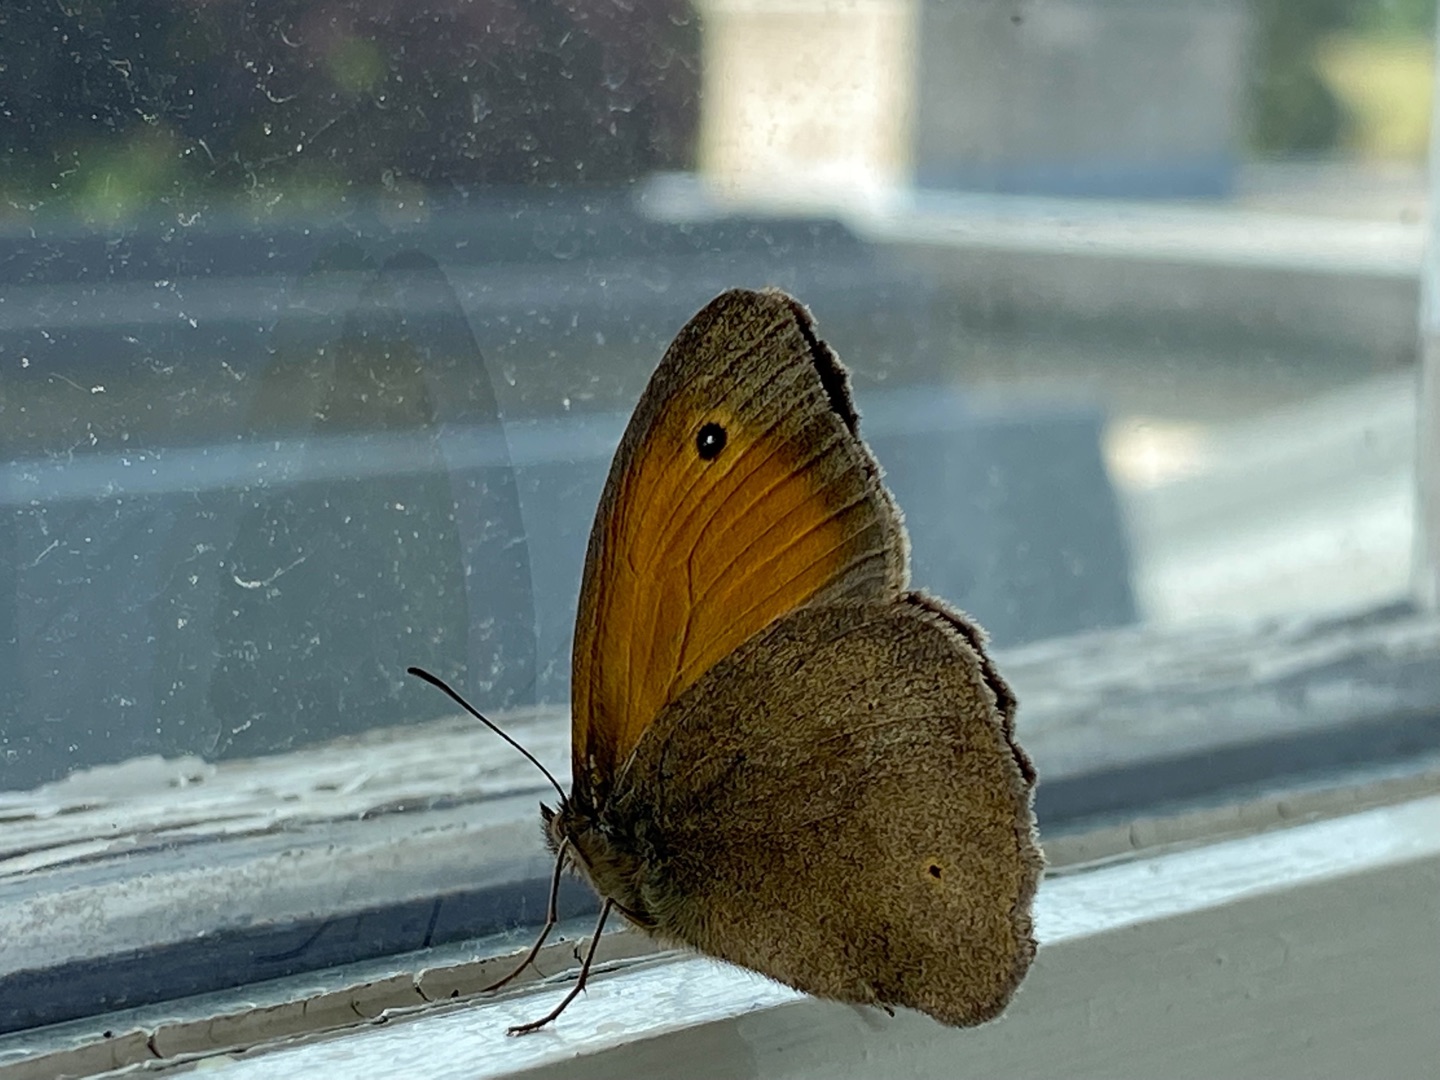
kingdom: Animalia
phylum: Arthropoda
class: Insecta
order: Lepidoptera
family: Nymphalidae
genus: Maniola
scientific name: Maniola jurtina
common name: Græsrandøje
